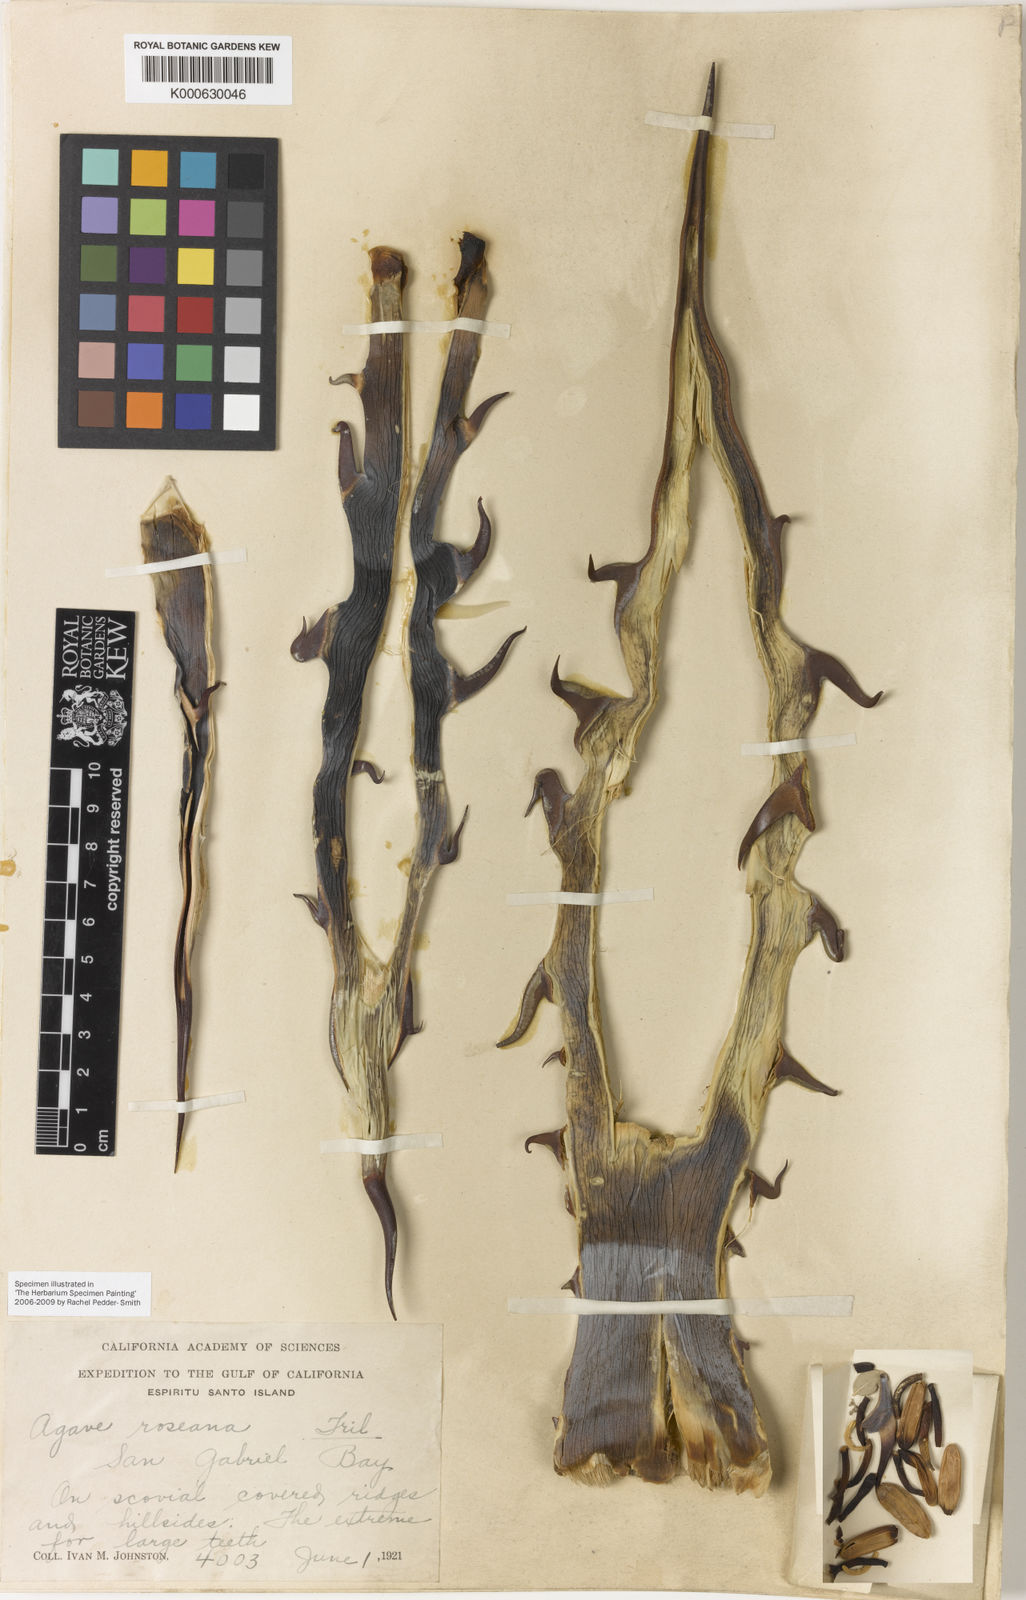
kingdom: Plantae
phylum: Tracheophyta
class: Liliopsida
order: Asparagales
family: Asparagaceae
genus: Agave
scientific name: Agave sobria
